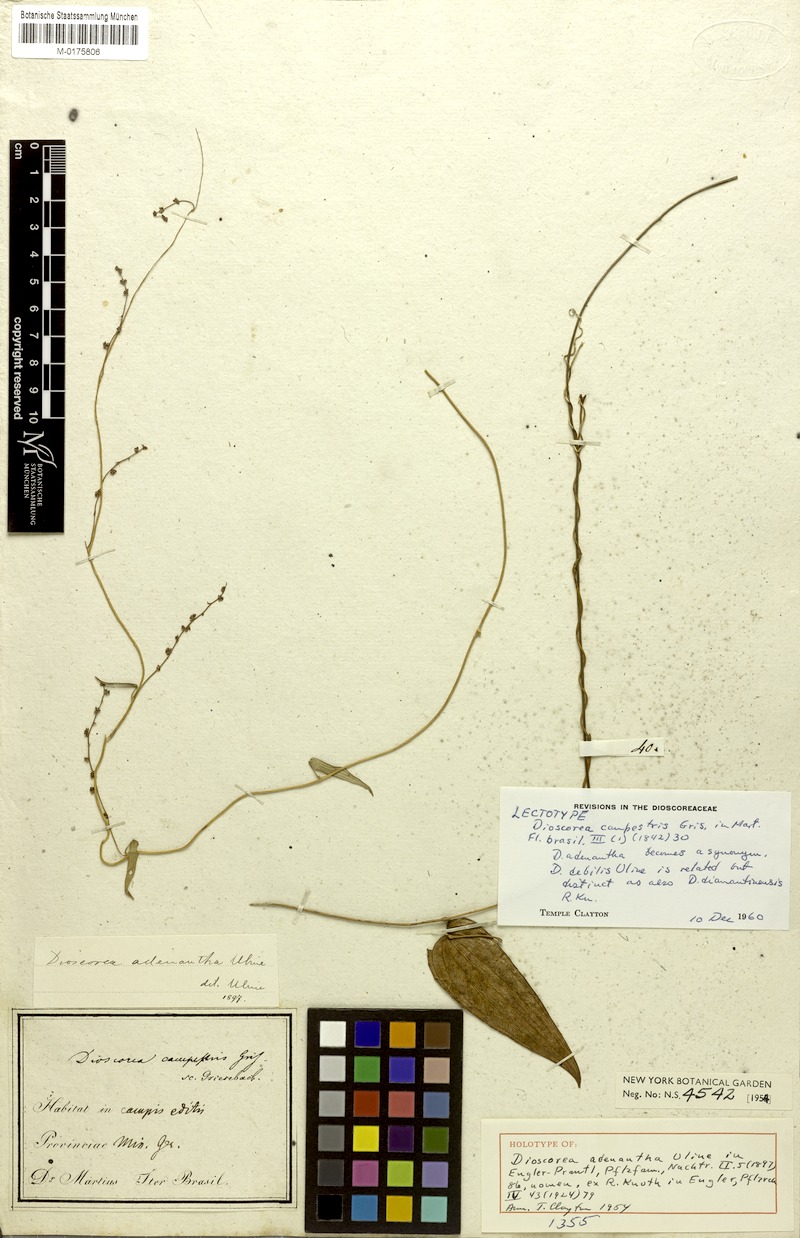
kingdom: Plantae
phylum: Tracheophyta
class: Liliopsida
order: Dioscoreales
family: Dioscoreaceae
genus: Dioscorea
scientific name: Dioscorea adenantha
